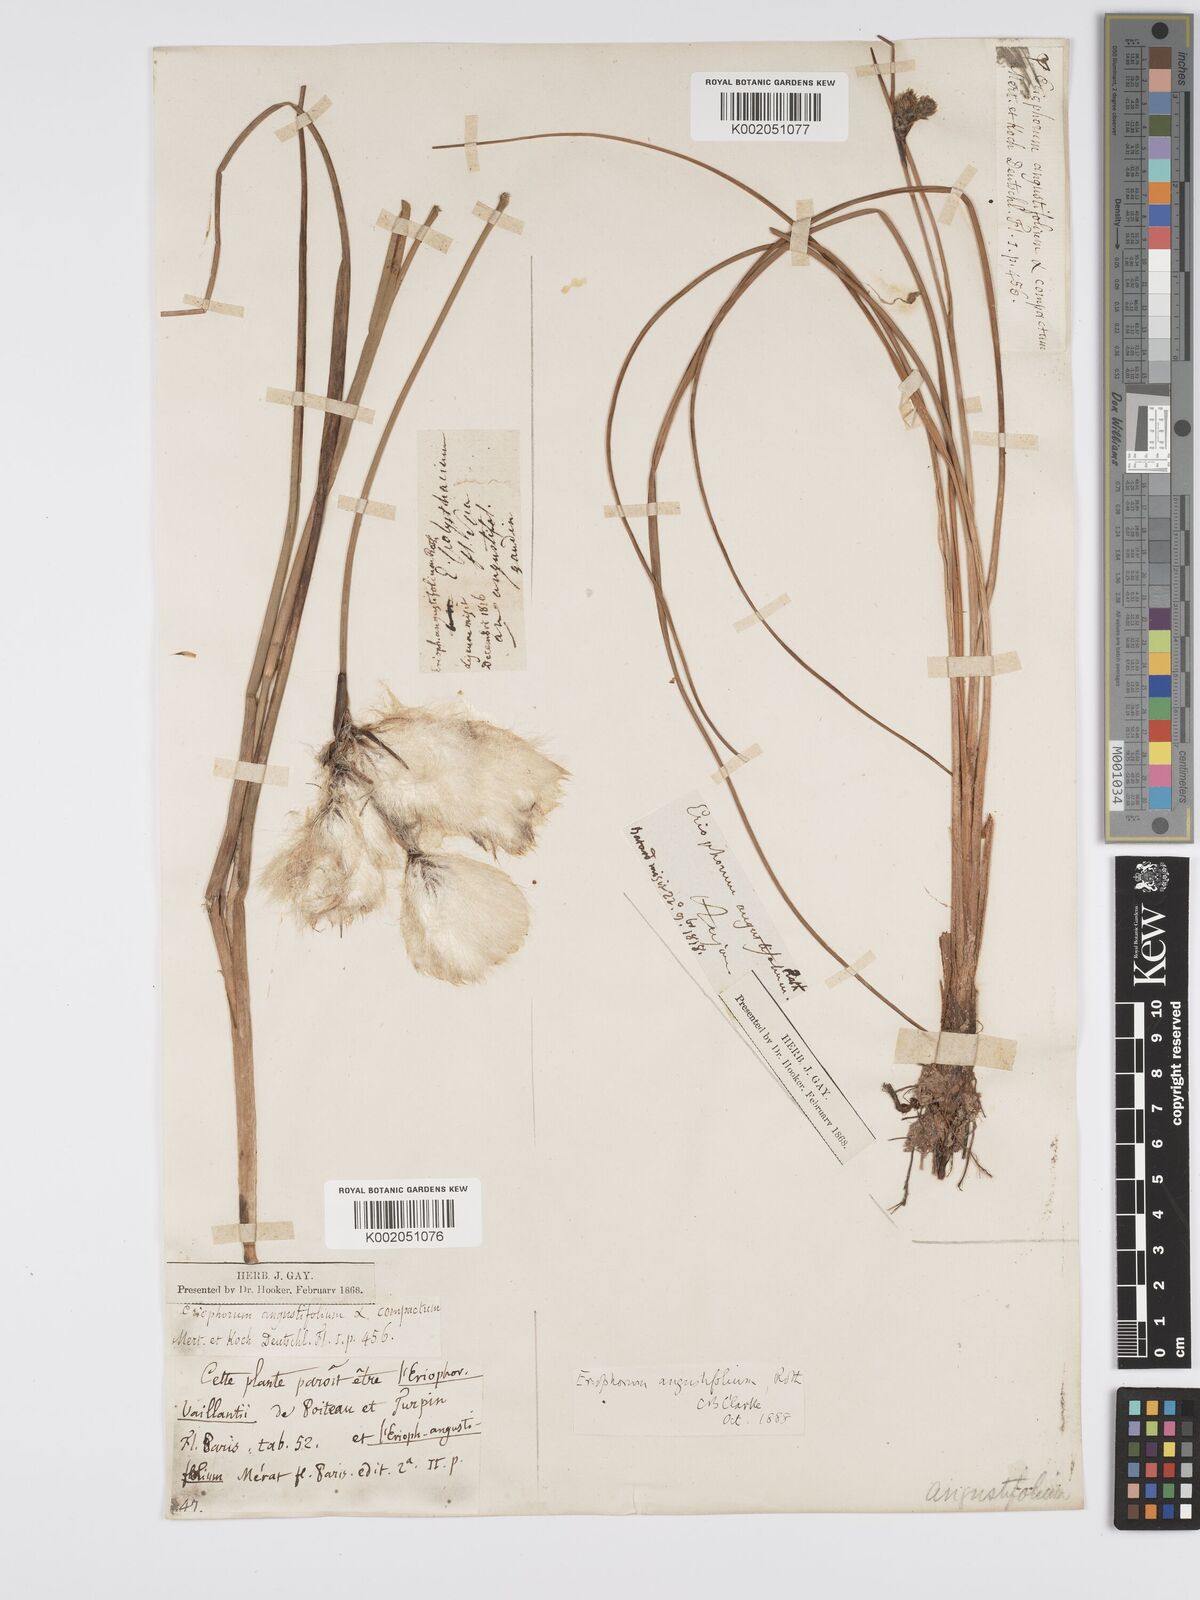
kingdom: Plantae
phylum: Tracheophyta
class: Liliopsida
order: Poales
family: Cyperaceae
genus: Eriophorum
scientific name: Eriophorum angustifolium
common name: Common cottongrass
